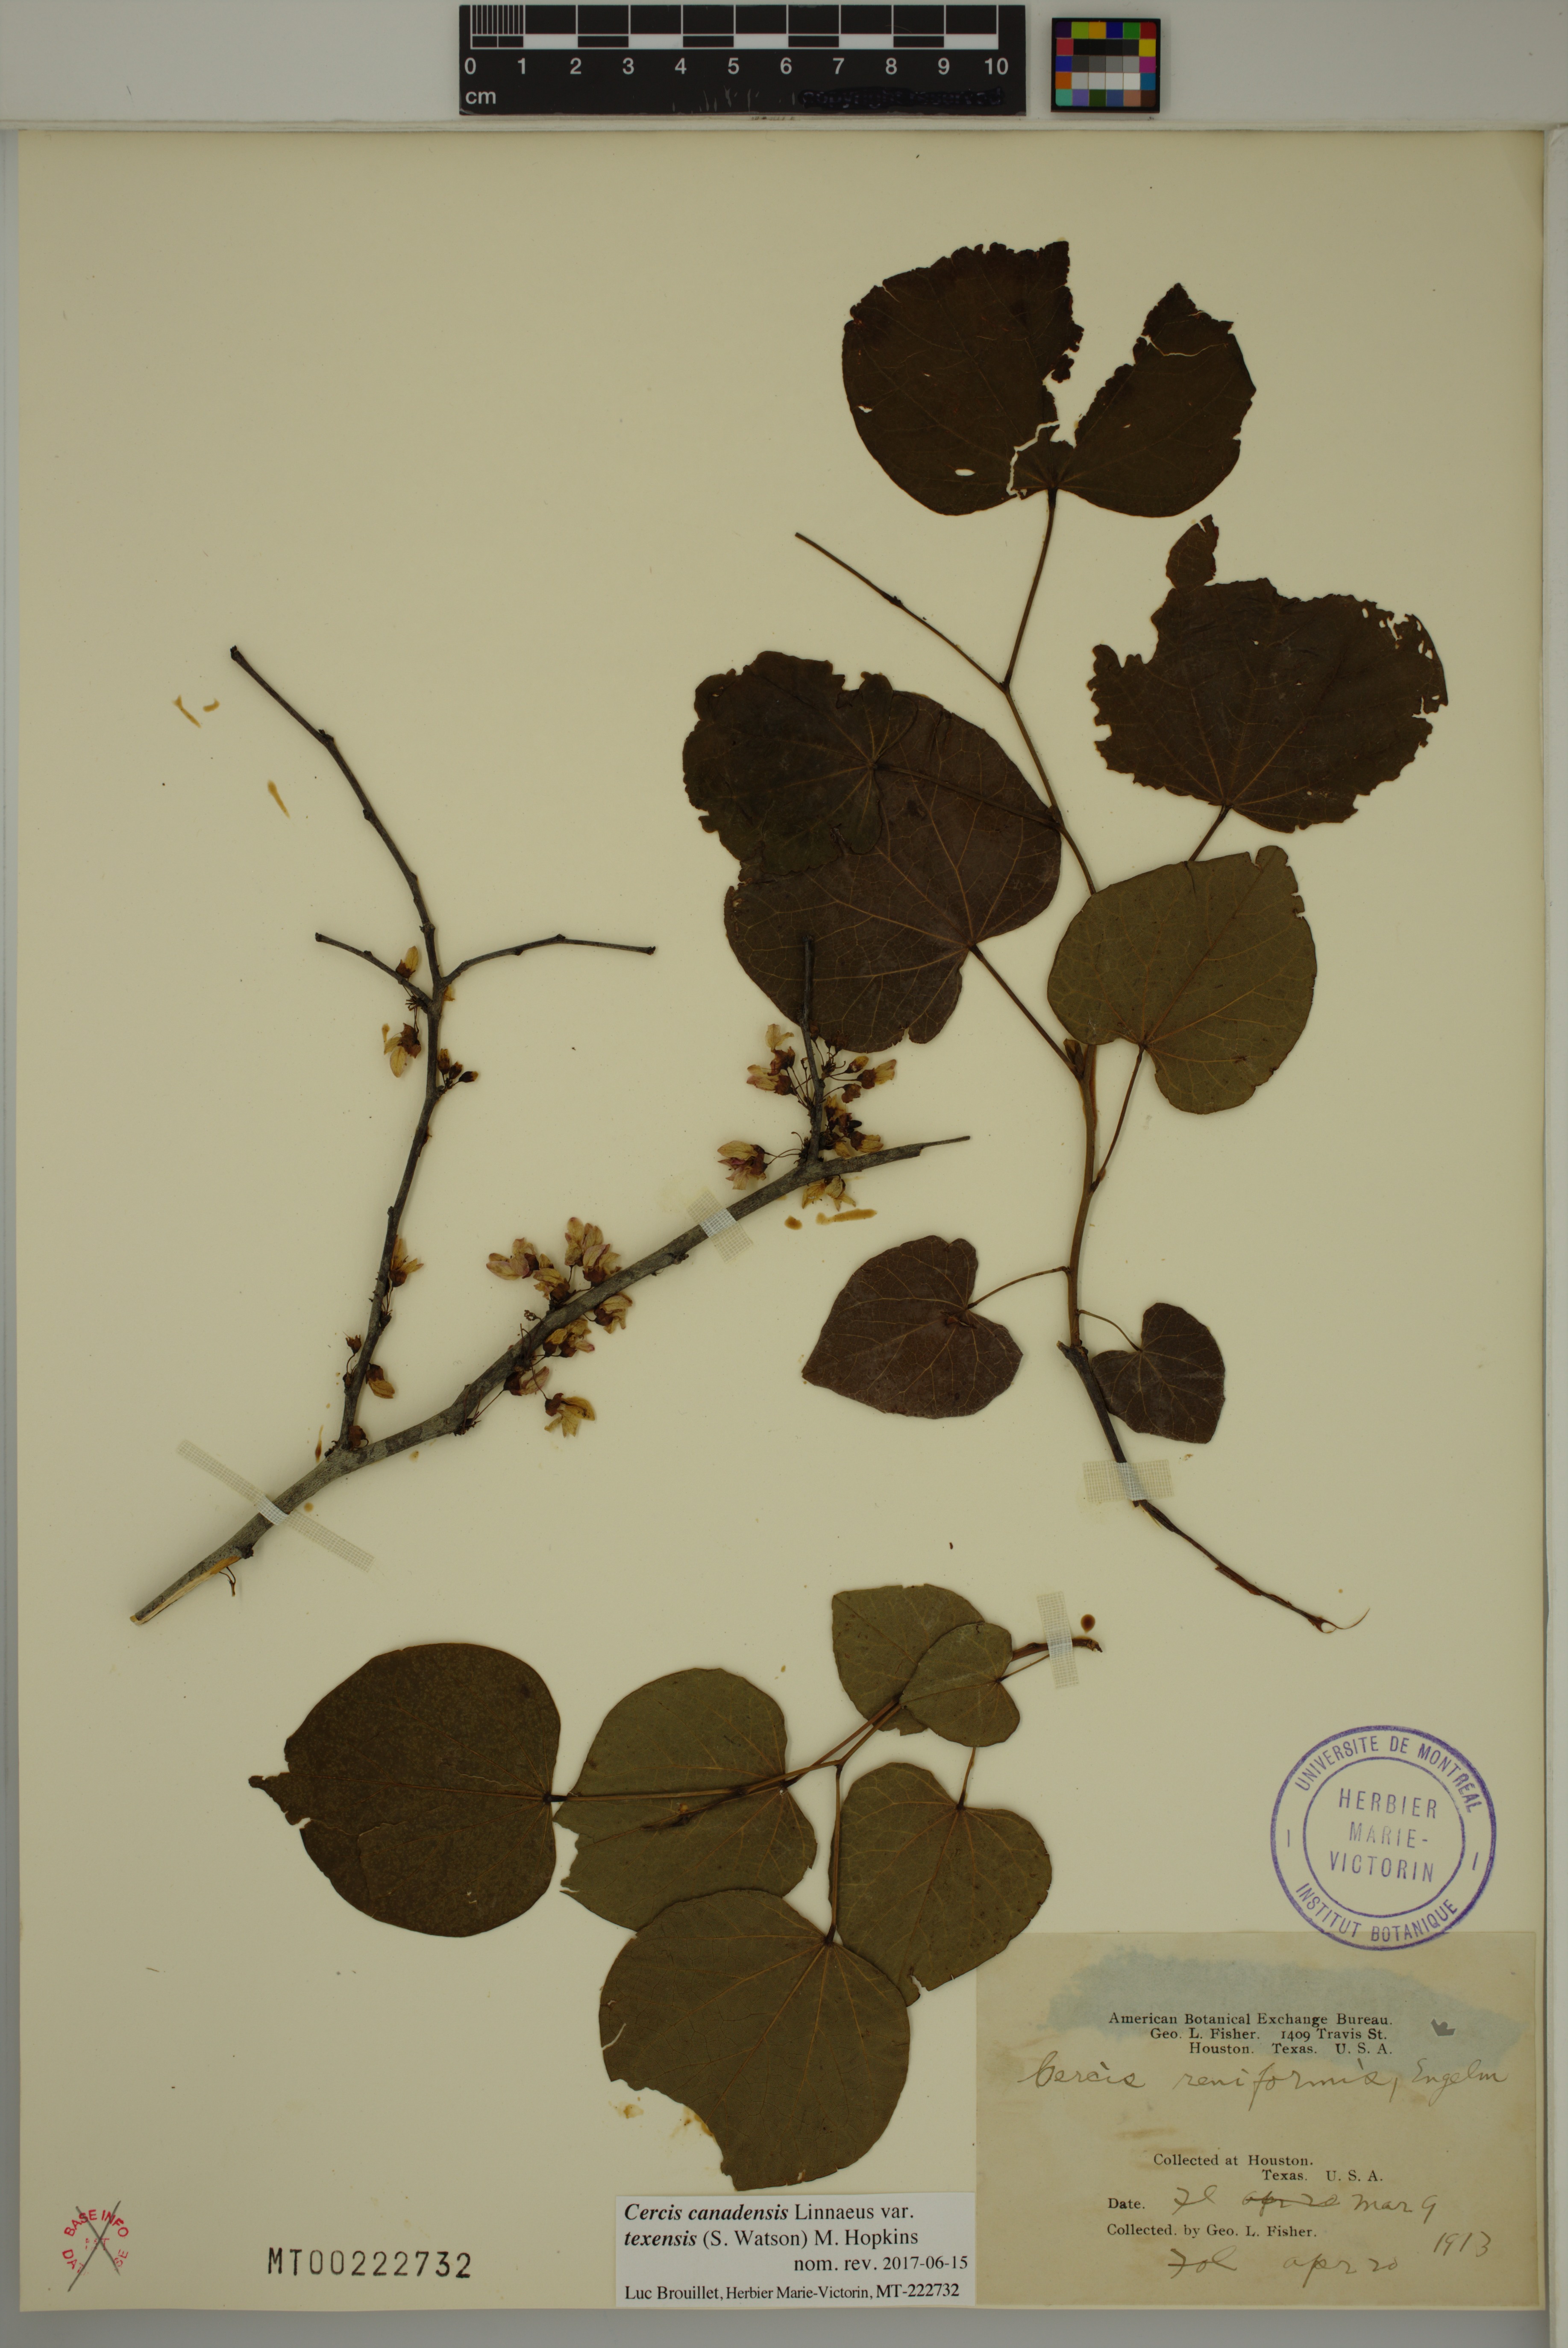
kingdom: Plantae
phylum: Tracheophyta
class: Magnoliopsida
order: Fabales
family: Fabaceae
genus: Cercis
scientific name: Cercis canadensis
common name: Eastern redbud
